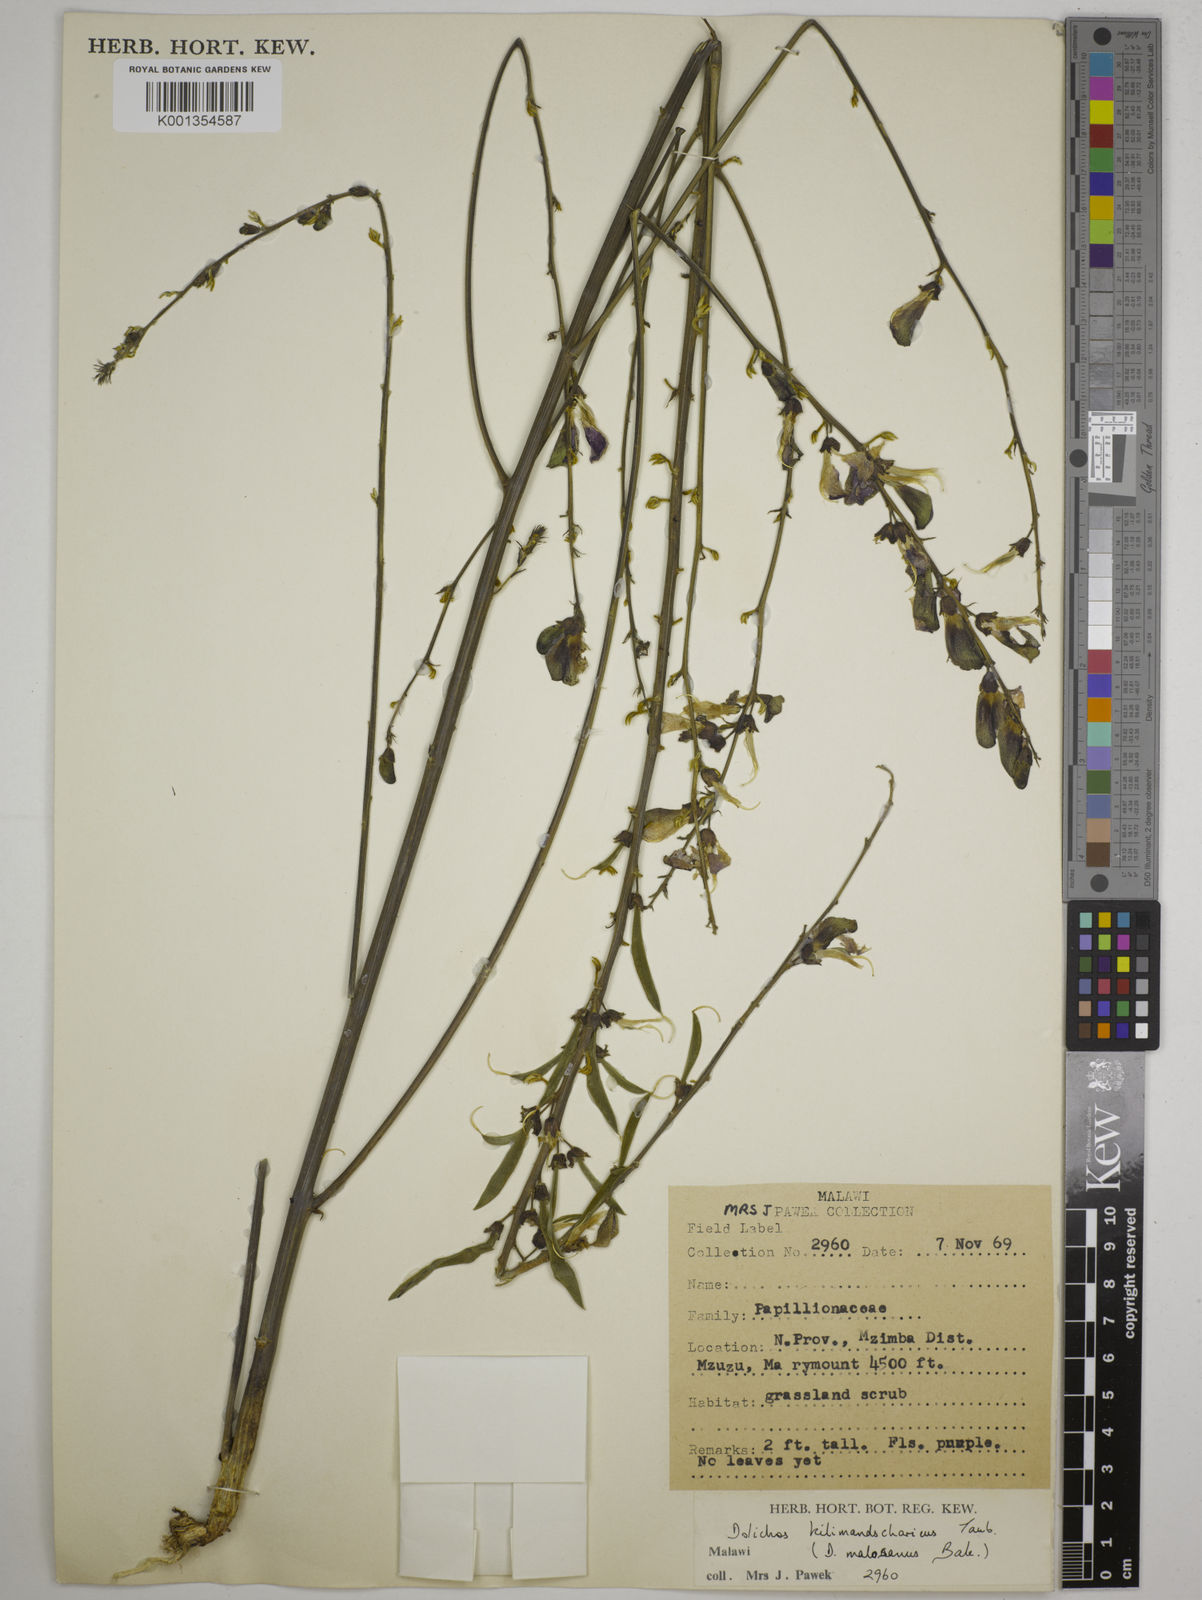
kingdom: Plantae
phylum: Tracheophyta
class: Magnoliopsida
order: Fabales
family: Fabaceae
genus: Dolichos
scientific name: Dolichos kilimandscharicus
